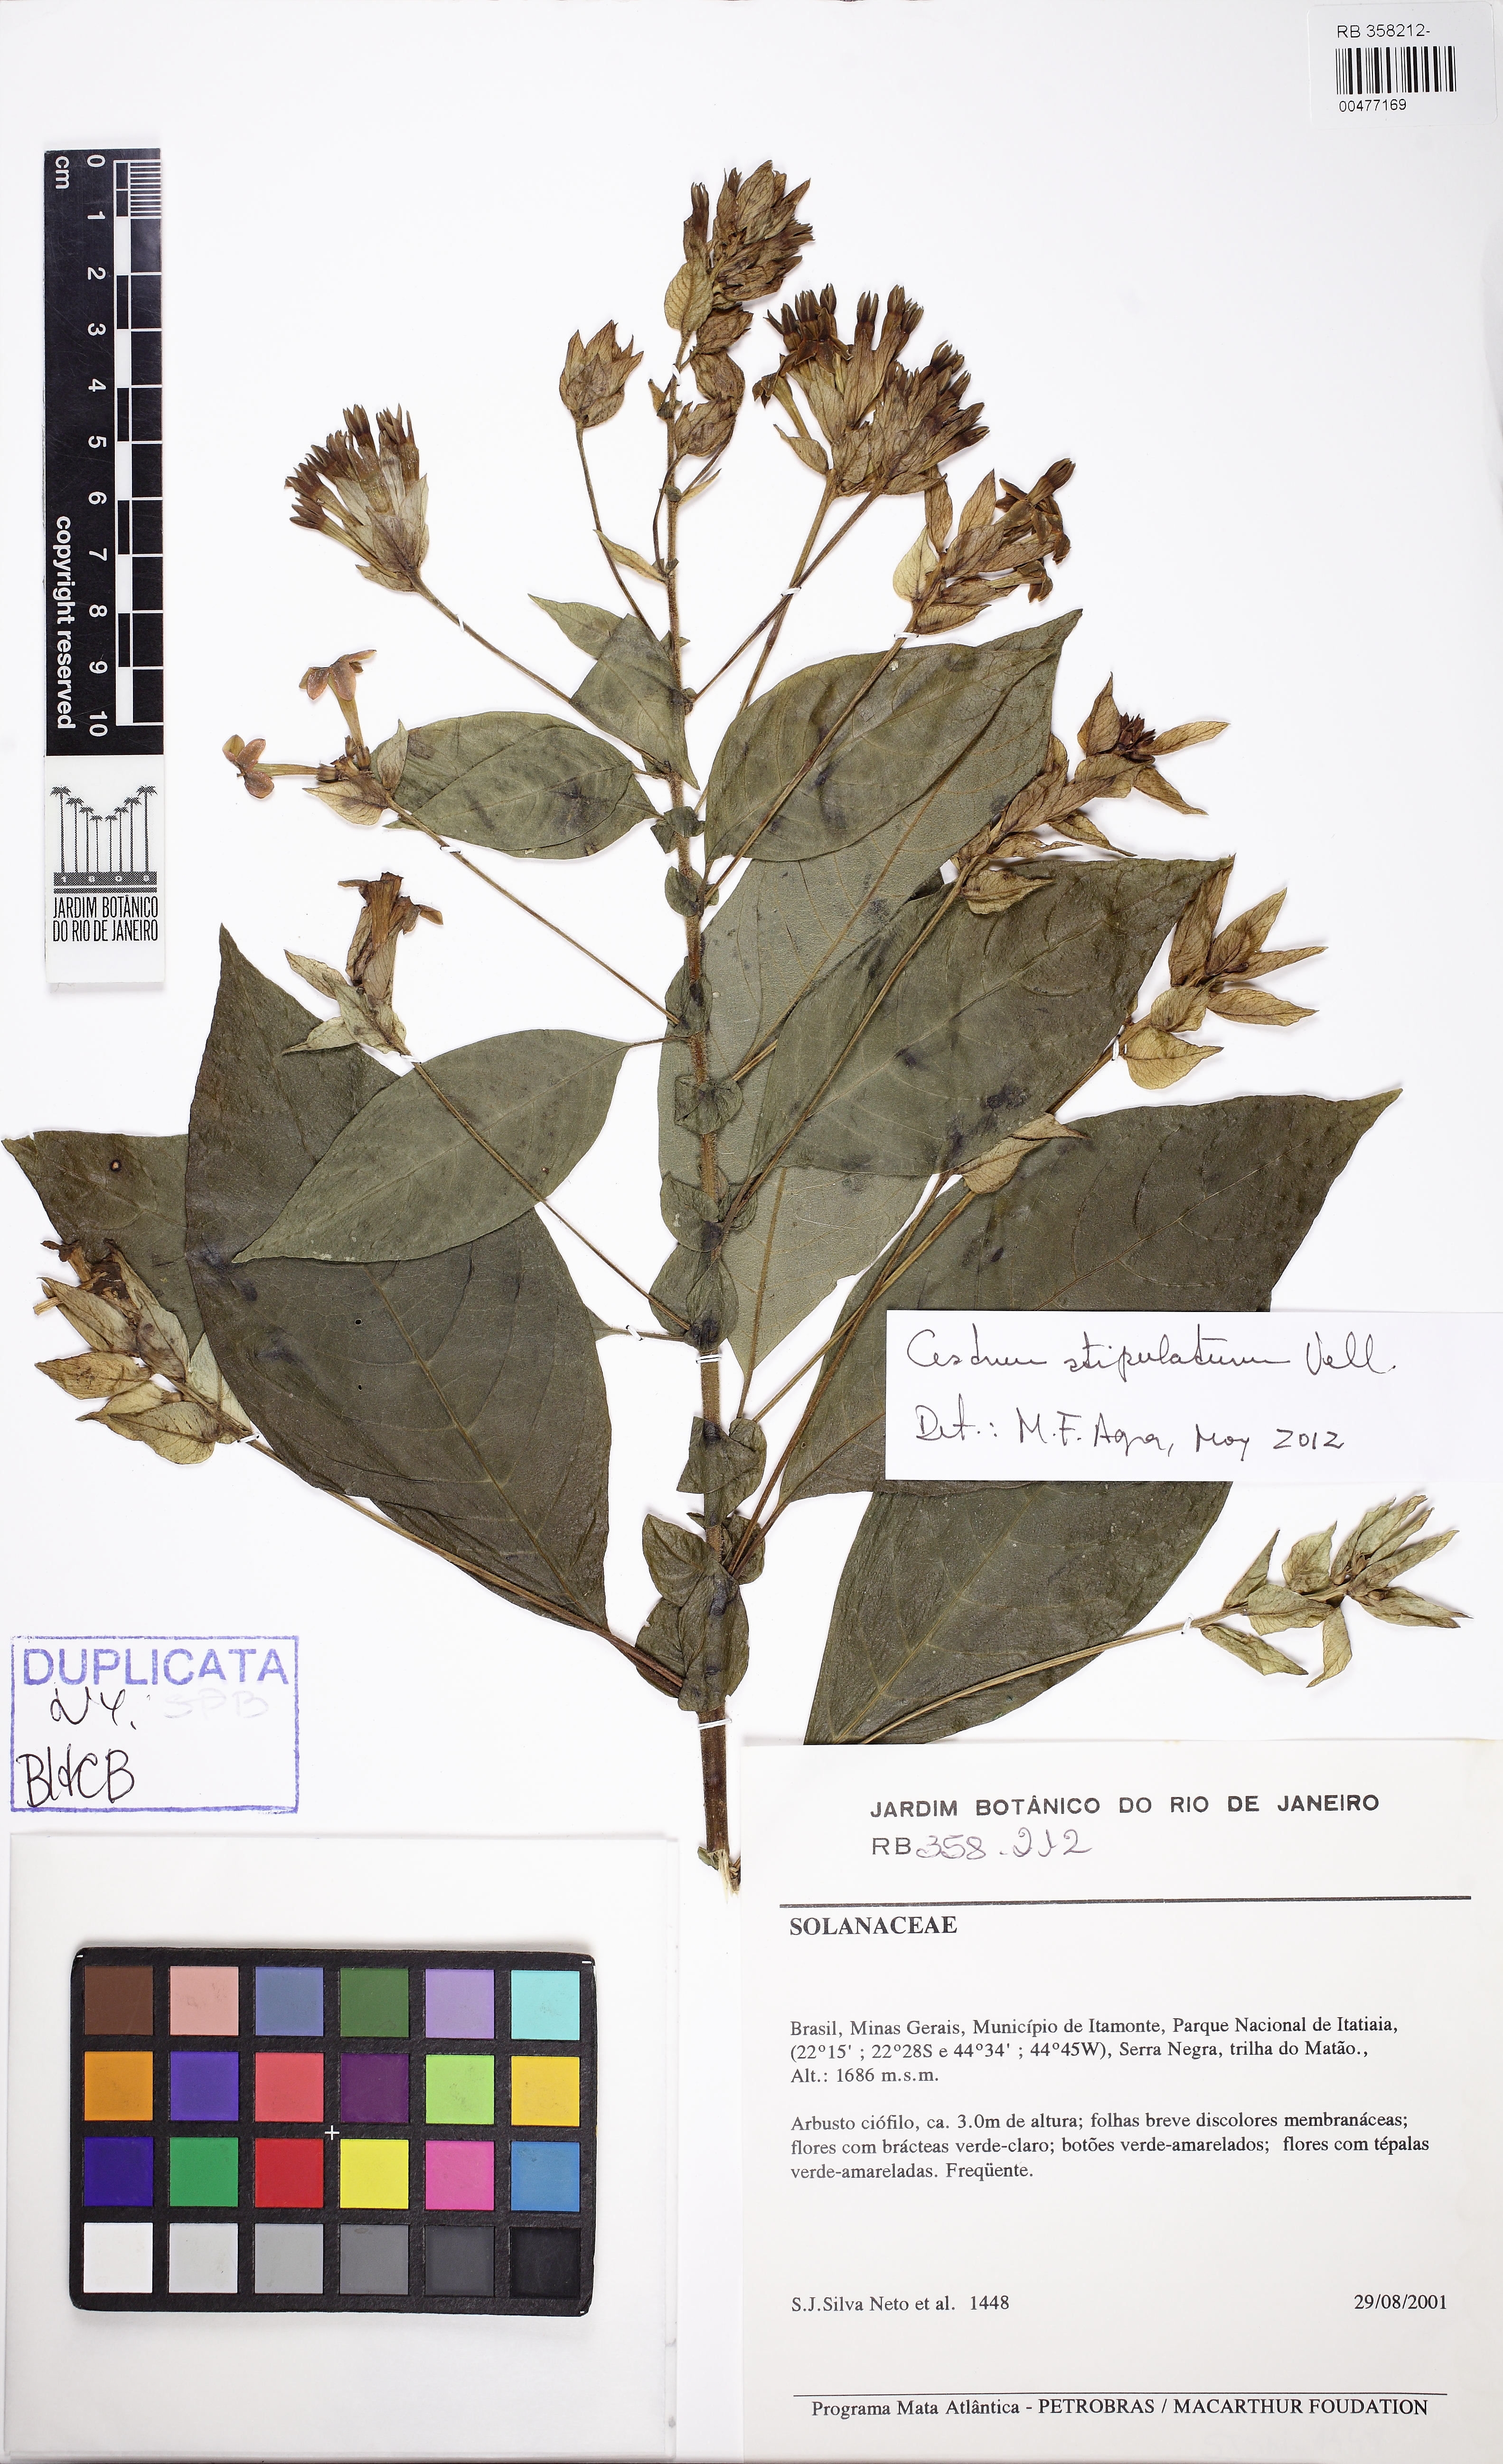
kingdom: Plantae
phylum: Tracheophyta
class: Magnoliopsida
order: Solanales
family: Solanaceae
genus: Cestrum
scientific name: Cestrum bracteatum
